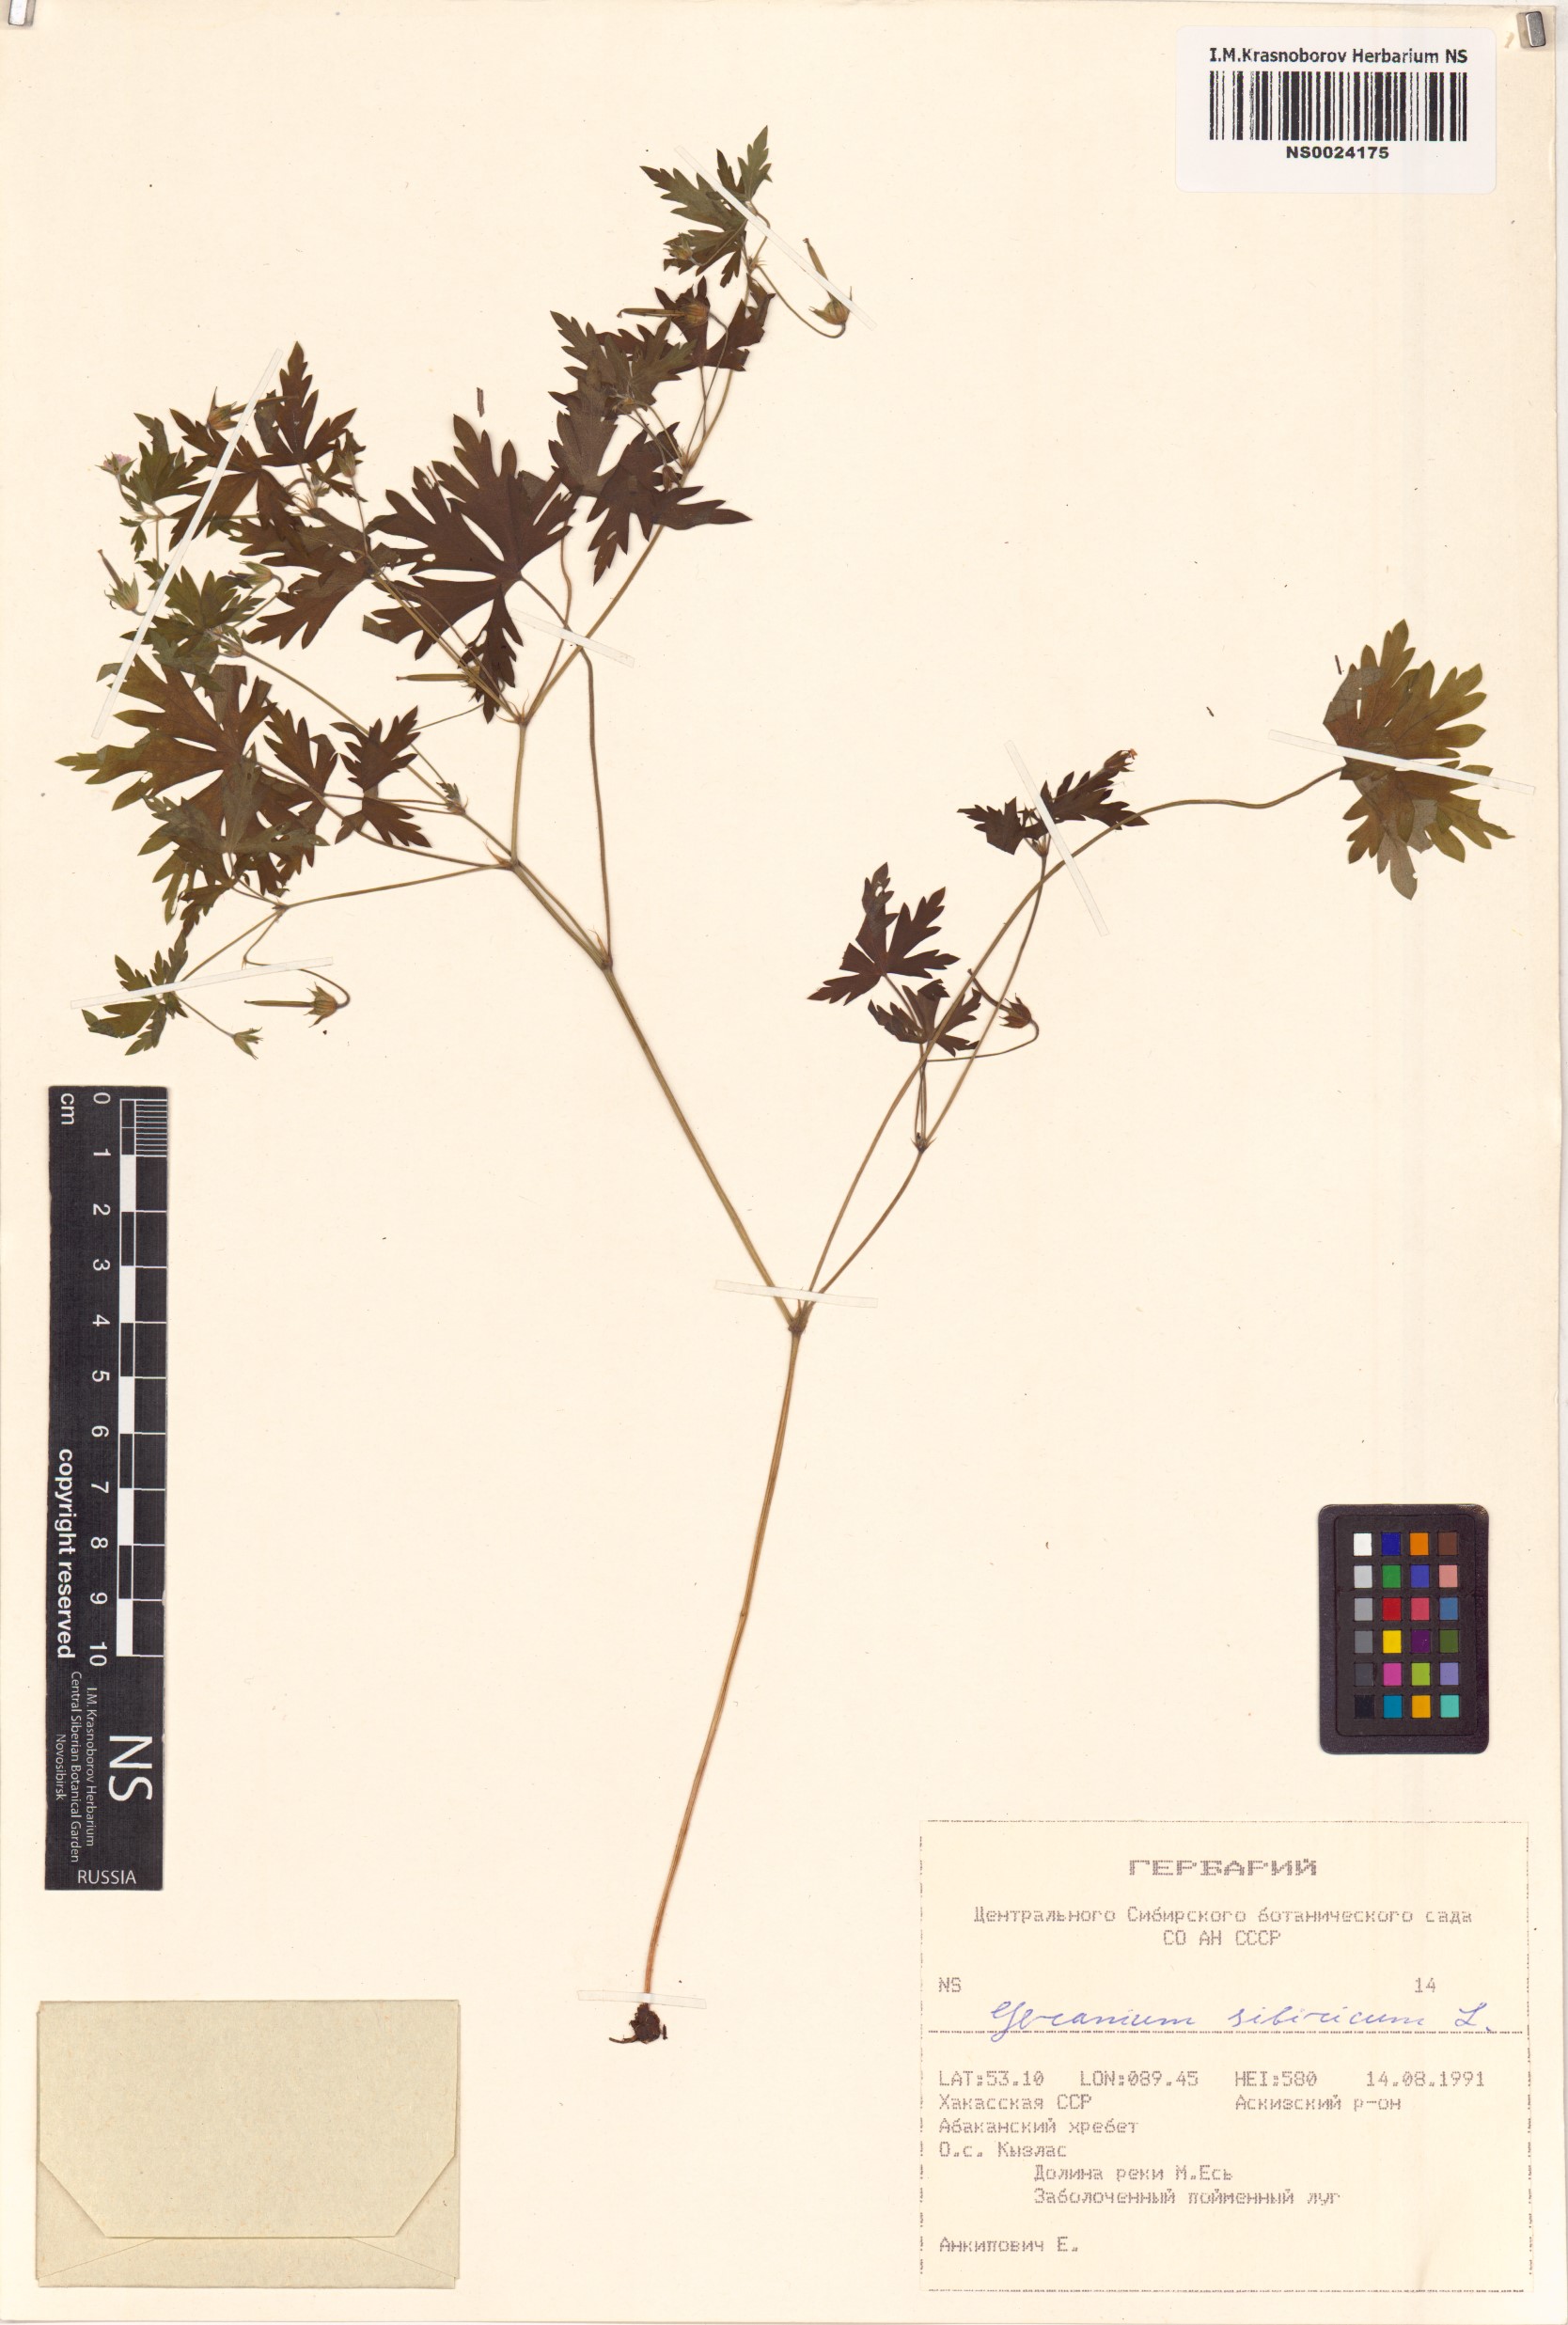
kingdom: Plantae
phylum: Tracheophyta
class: Magnoliopsida
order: Geraniales
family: Geraniaceae
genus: Geranium
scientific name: Geranium sibiricum
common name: Siberian crane's-bill
